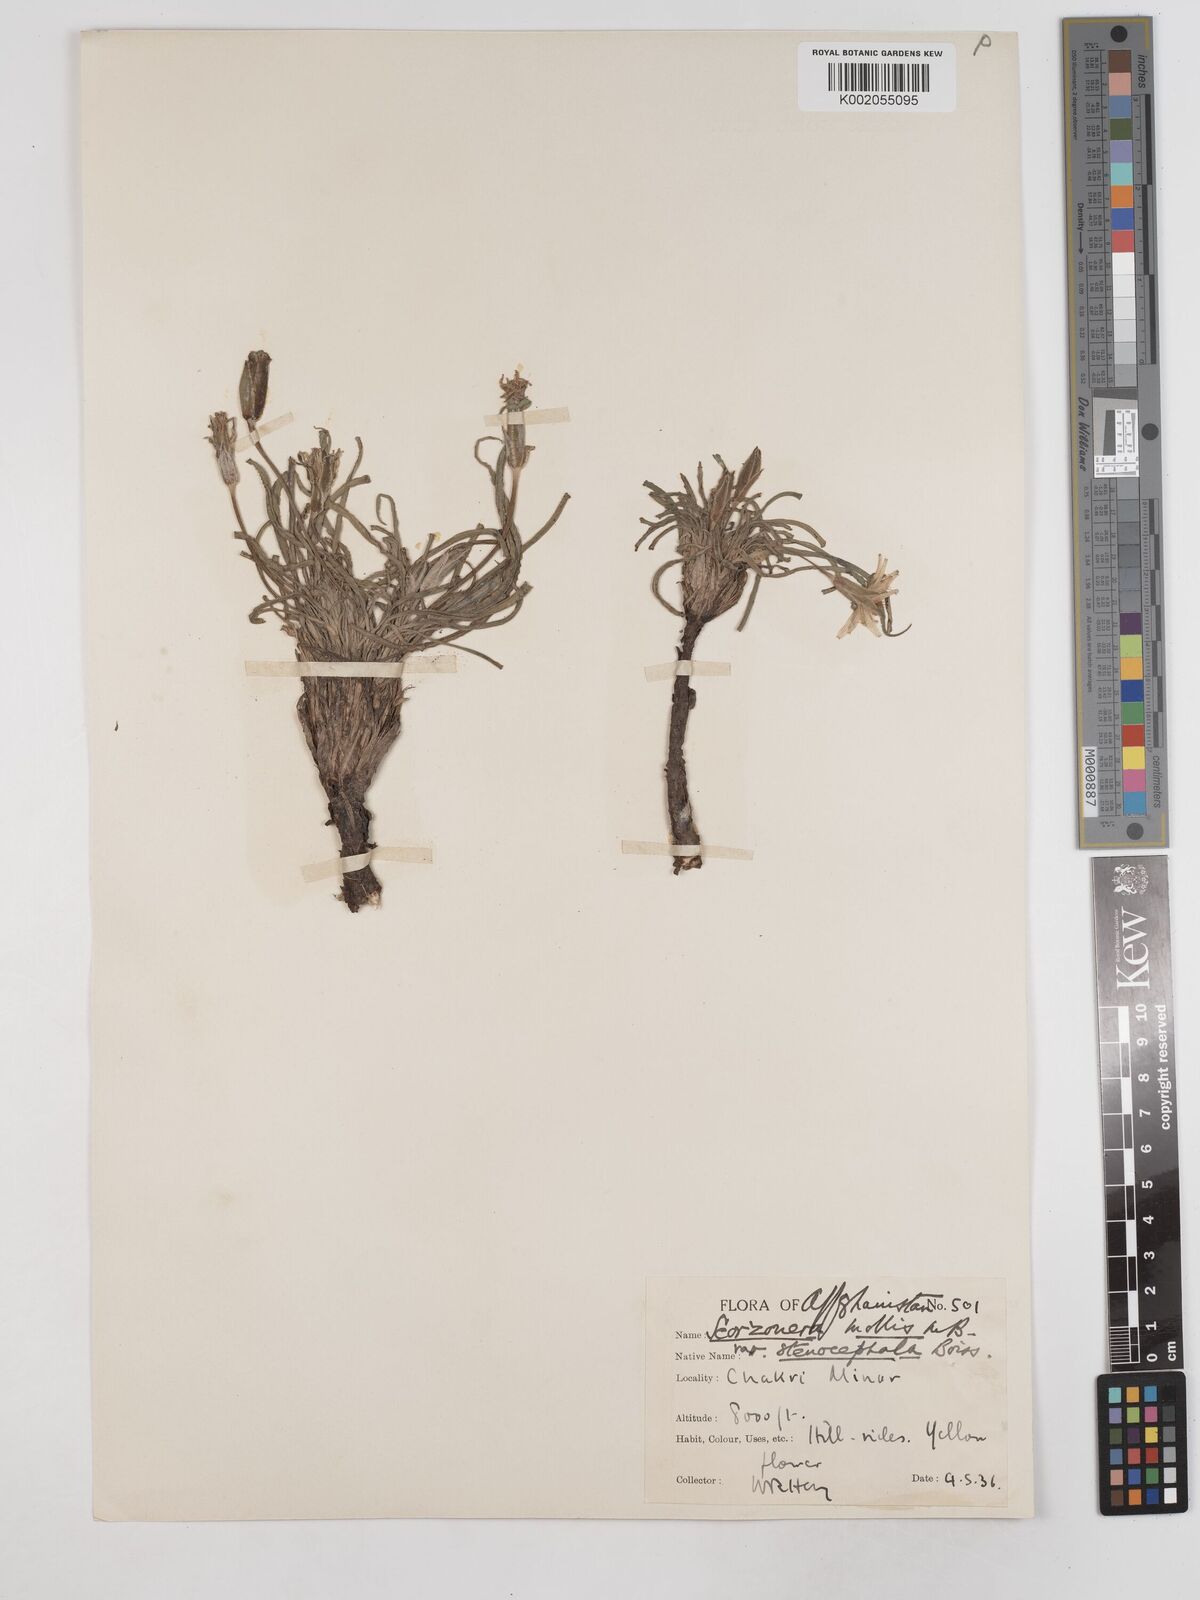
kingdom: Plantae
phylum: Tracheophyta
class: Magnoliopsida
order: Asterales
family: Asteraceae
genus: Candollea
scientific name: Candollea mollis
